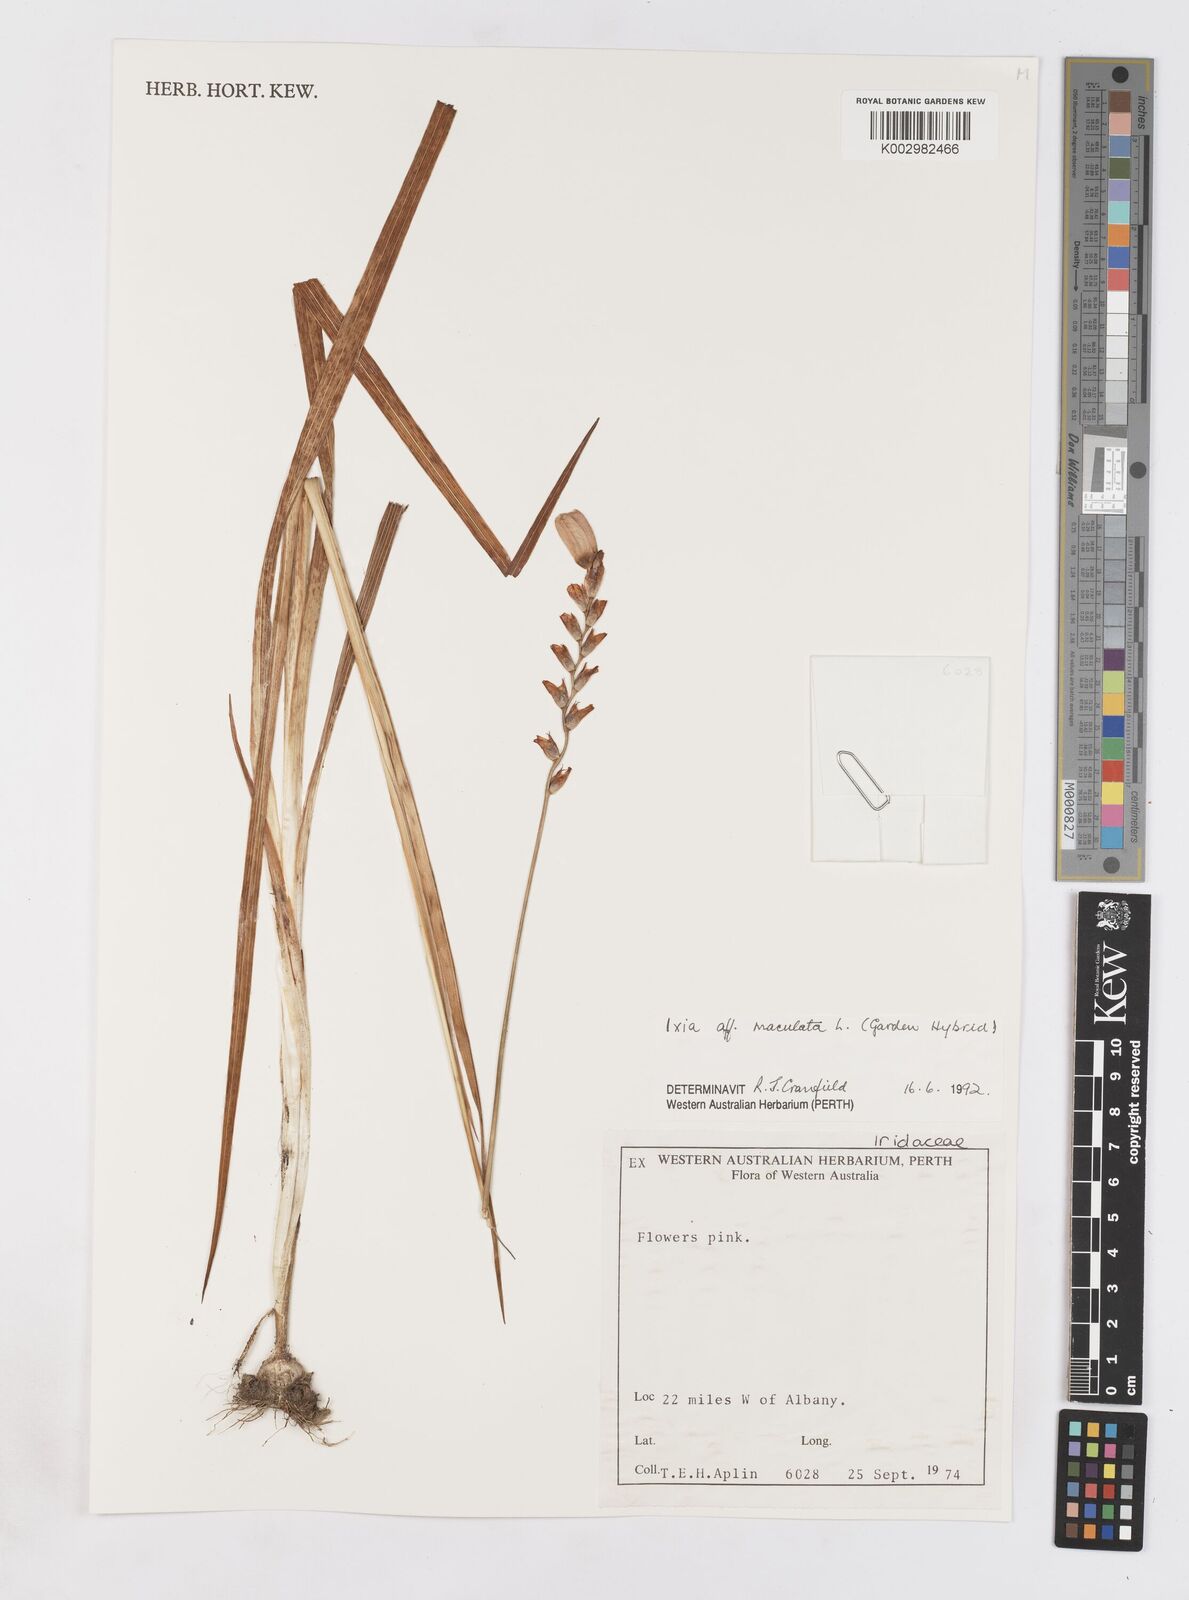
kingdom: Plantae
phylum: Tracheophyta
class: Liliopsida
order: Asparagales
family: Iridaceae
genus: Ixia
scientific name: Ixia maculata
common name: Spotted african cornlily
